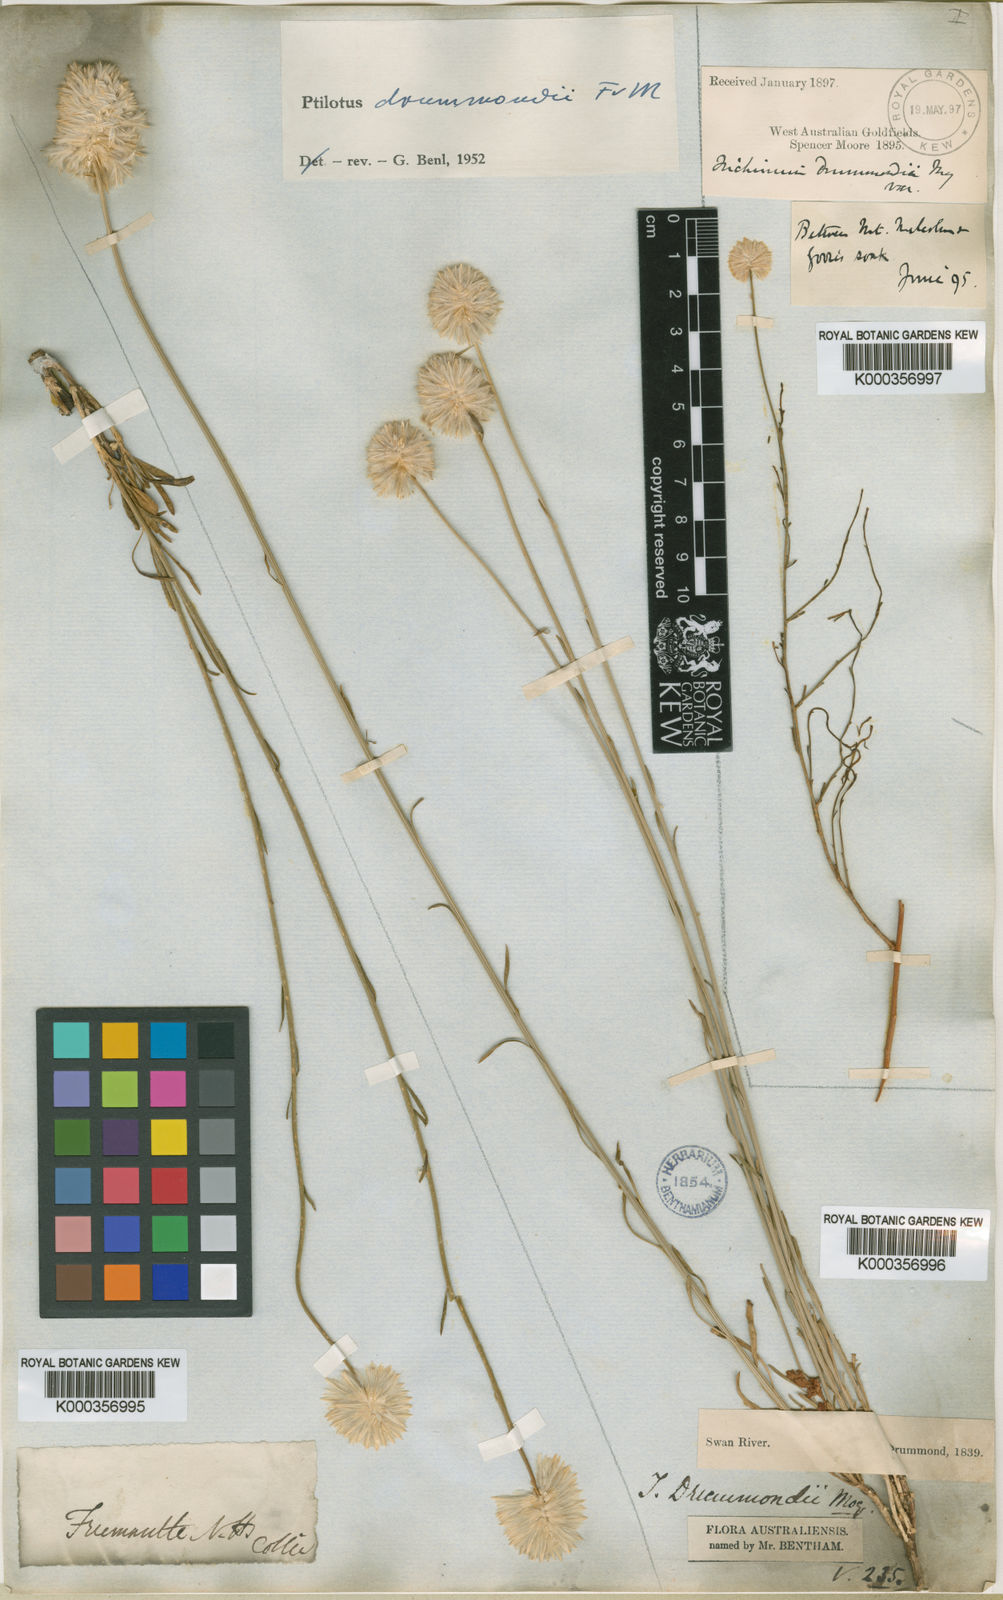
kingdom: Plantae
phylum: Tracheophyta
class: Magnoliopsida
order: Caryophyllales
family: Amaranthaceae
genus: Ptilotus
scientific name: Ptilotus drummondii
